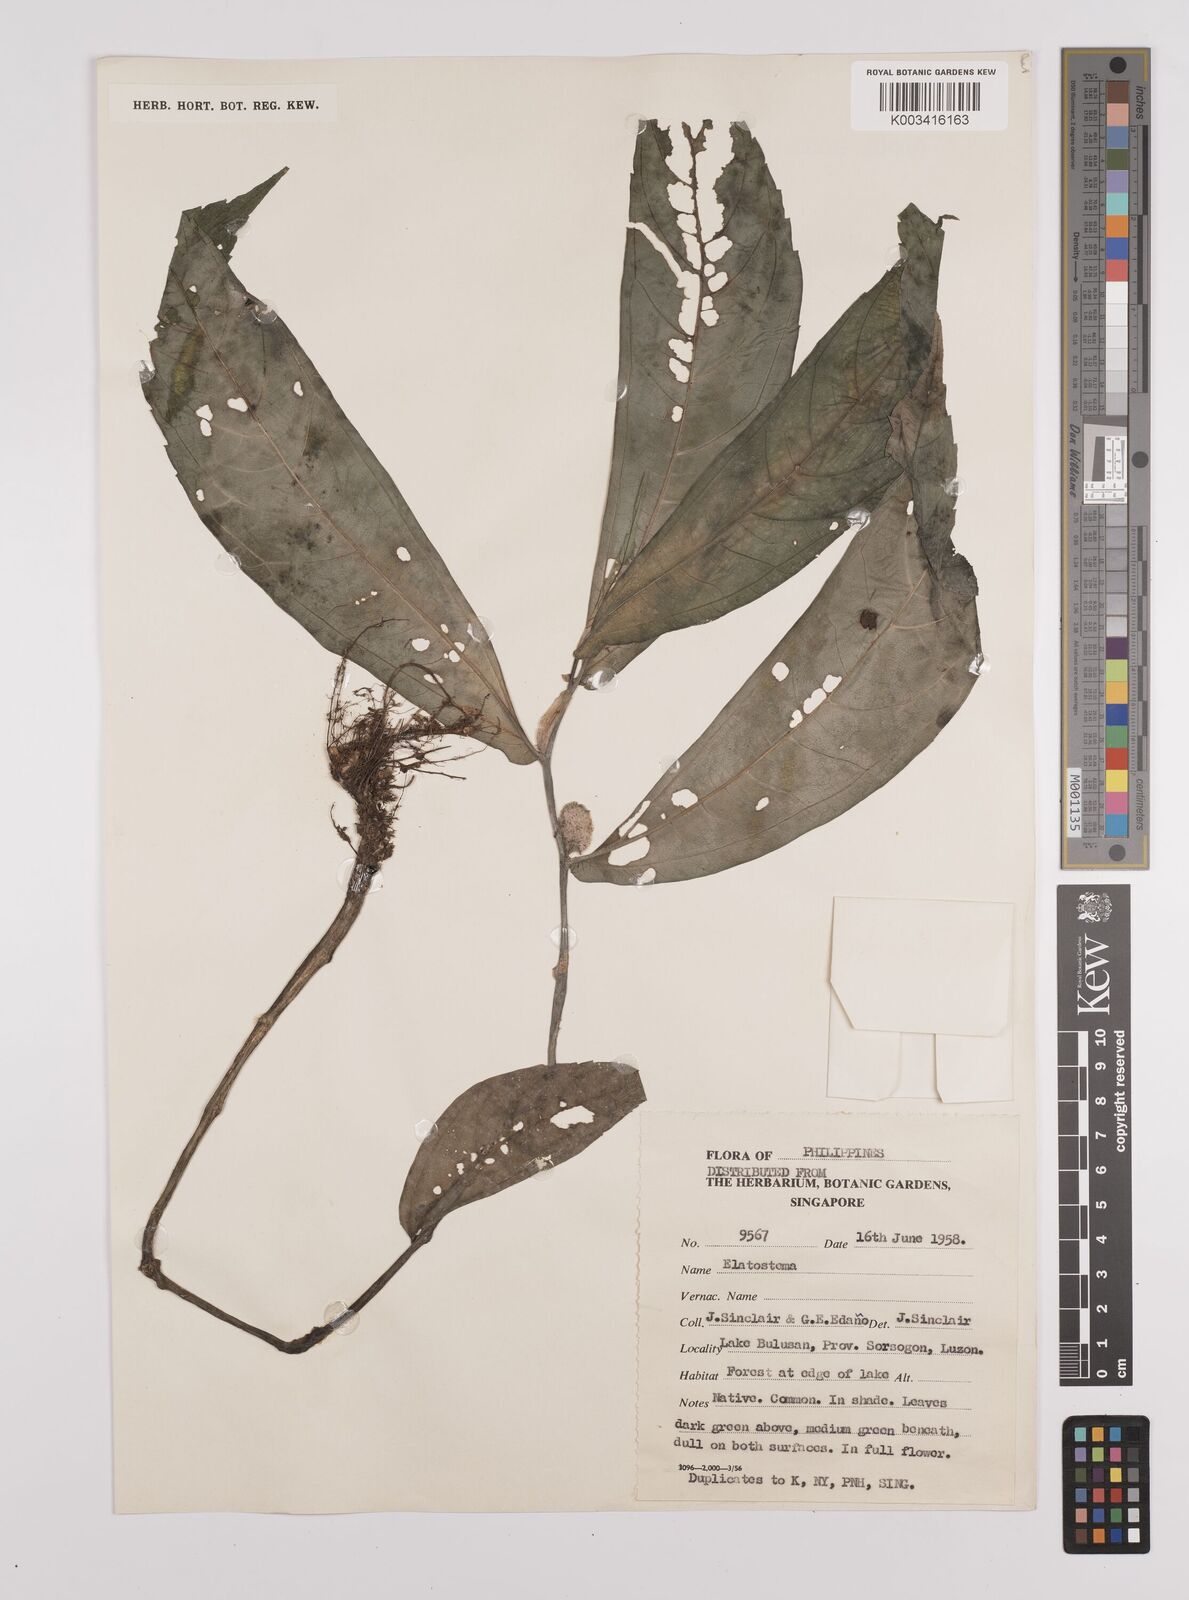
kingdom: Plantae
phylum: Tracheophyta
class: Magnoliopsida
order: Rosales
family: Urticaceae
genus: Elatostema
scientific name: Elatostema
